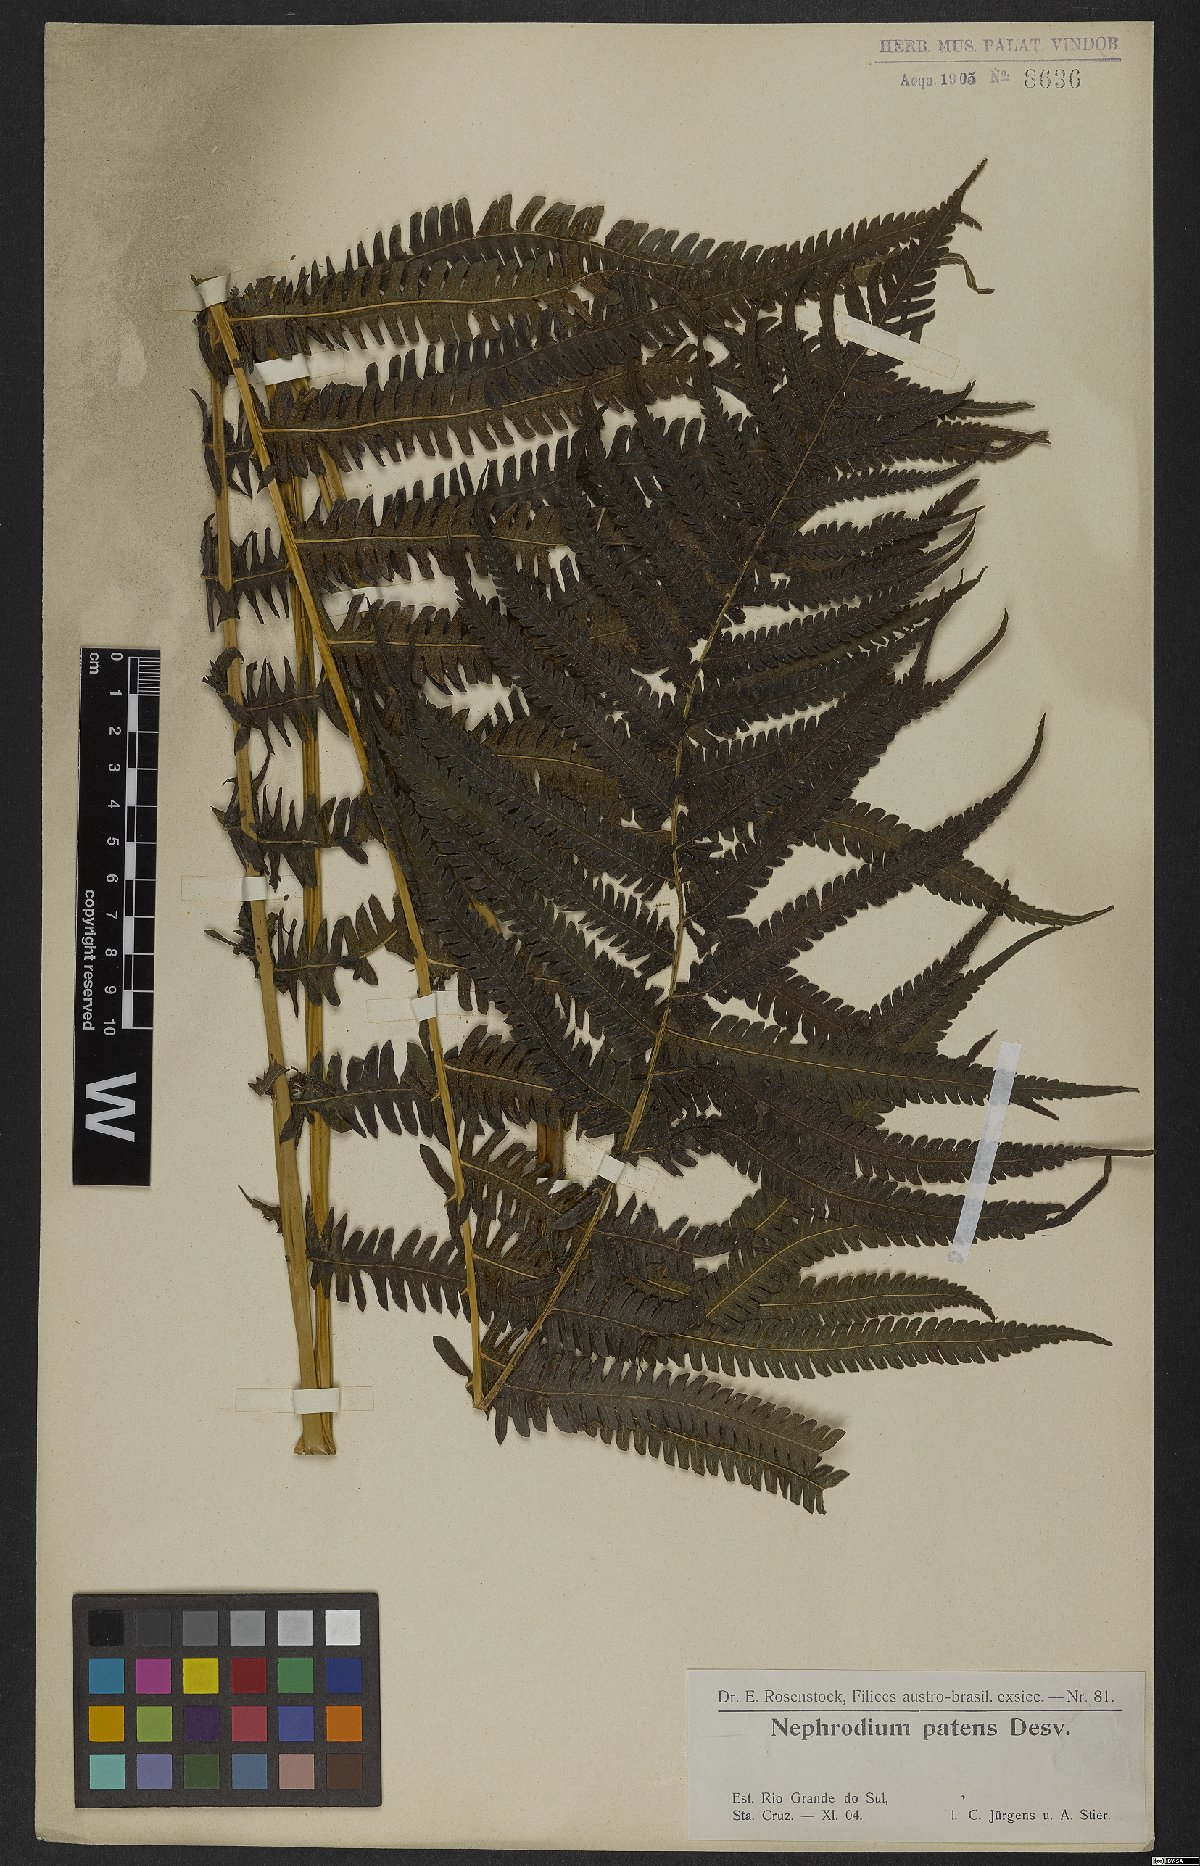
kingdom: Plantae
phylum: Tracheophyta
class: Polypodiopsida
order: Polypodiales
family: Thelypteridaceae
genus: Pelazoneuron
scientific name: Pelazoneuron patens
